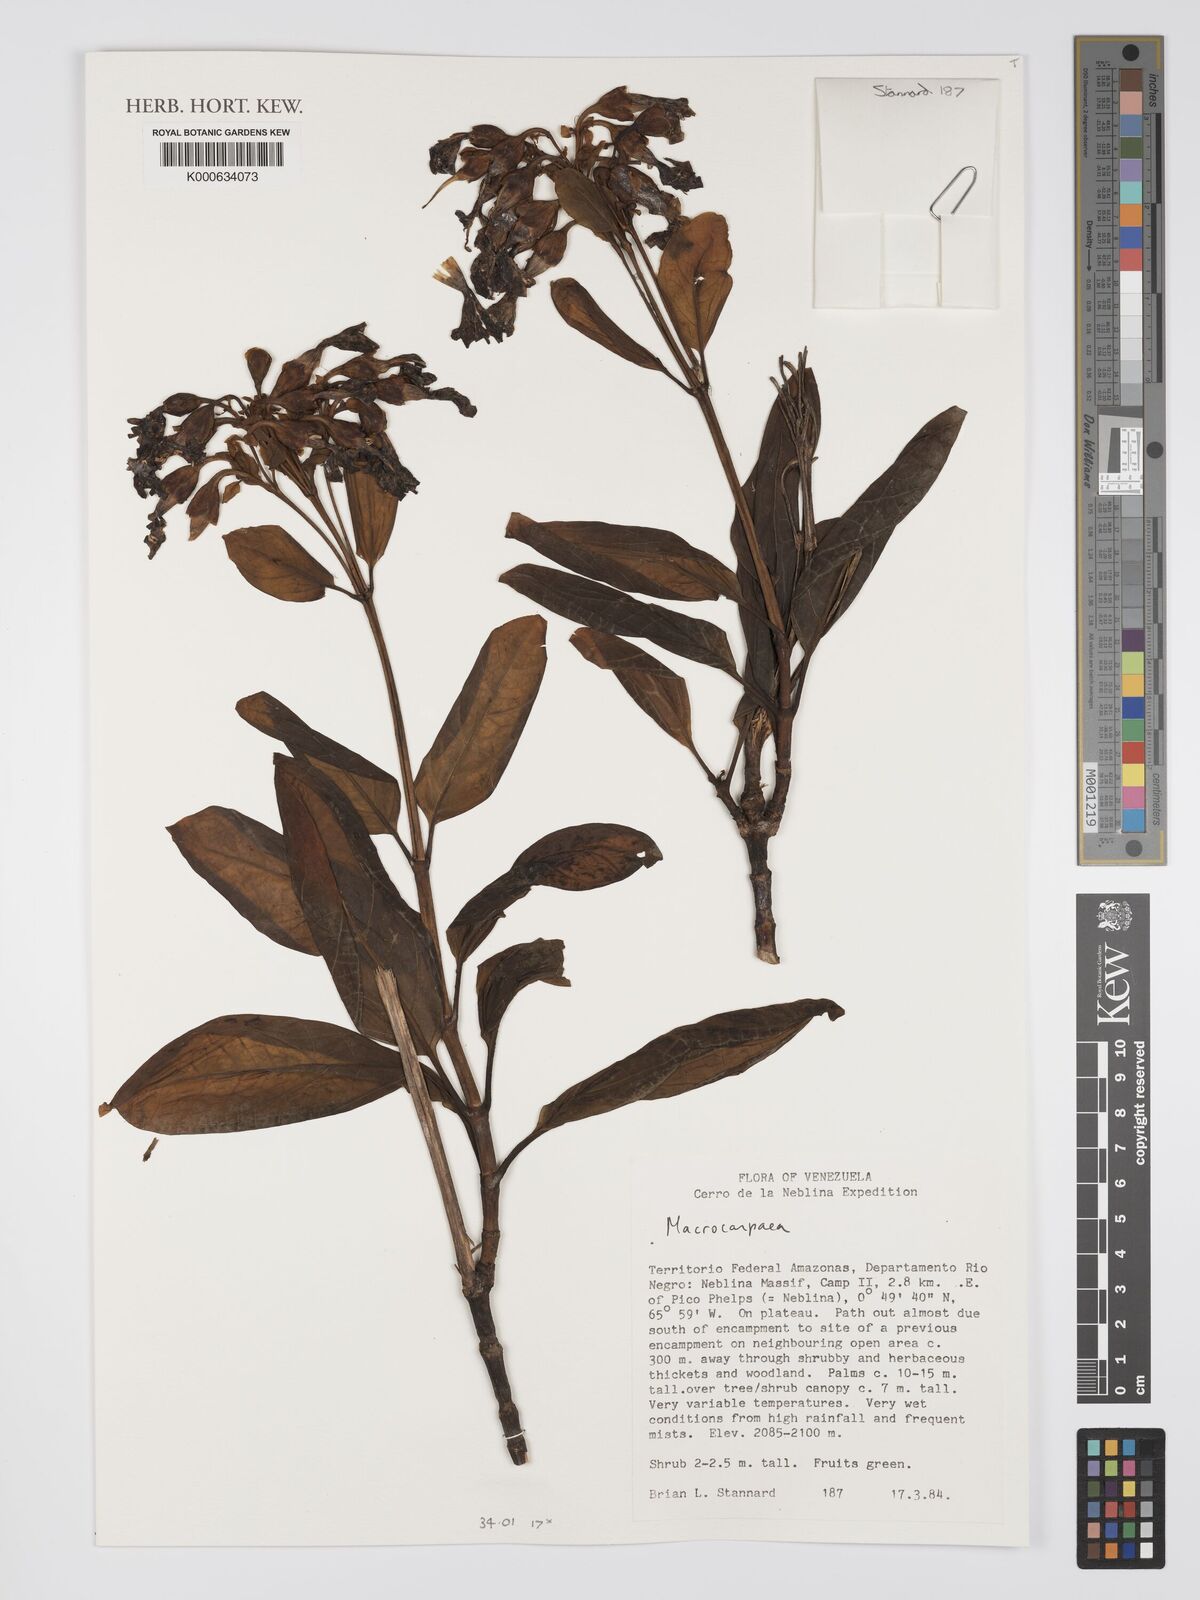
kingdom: Plantae
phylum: Tracheophyta
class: Magnoliopsida
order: Gentianales
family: Gentianaceae
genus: Macrocarpaea
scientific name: Macrocarpaea
